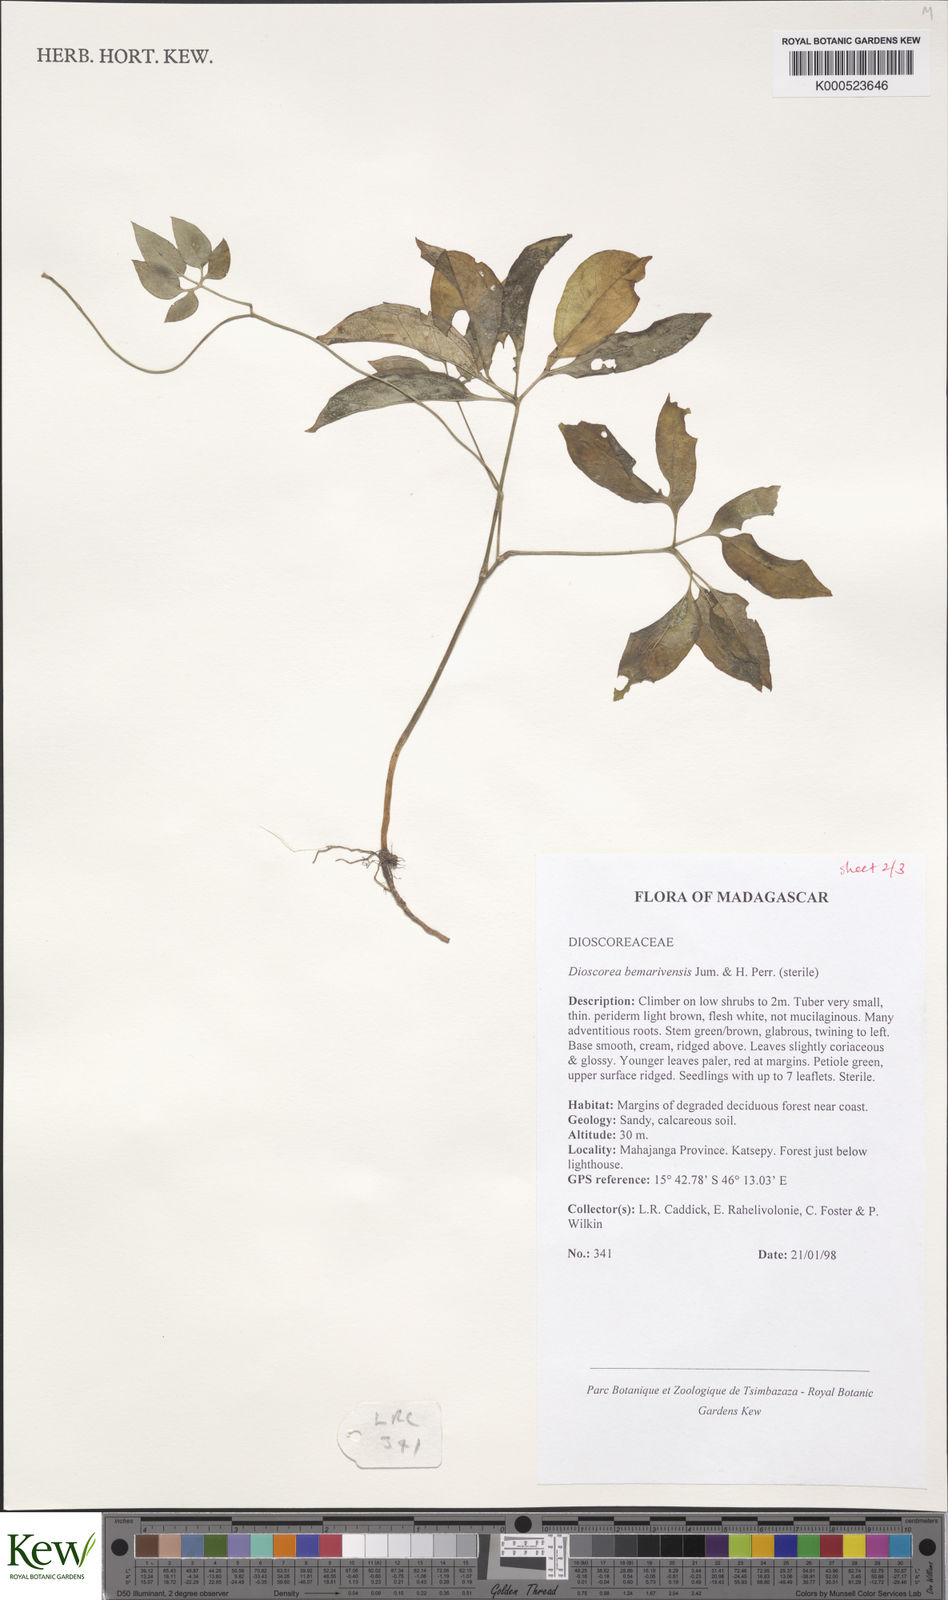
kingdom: Plantae
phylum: Tracheophyta
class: Liliopsida
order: Dioscoreales
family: Dioscoreaceae
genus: Dioscorea
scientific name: Dioscorea bemarivensis
